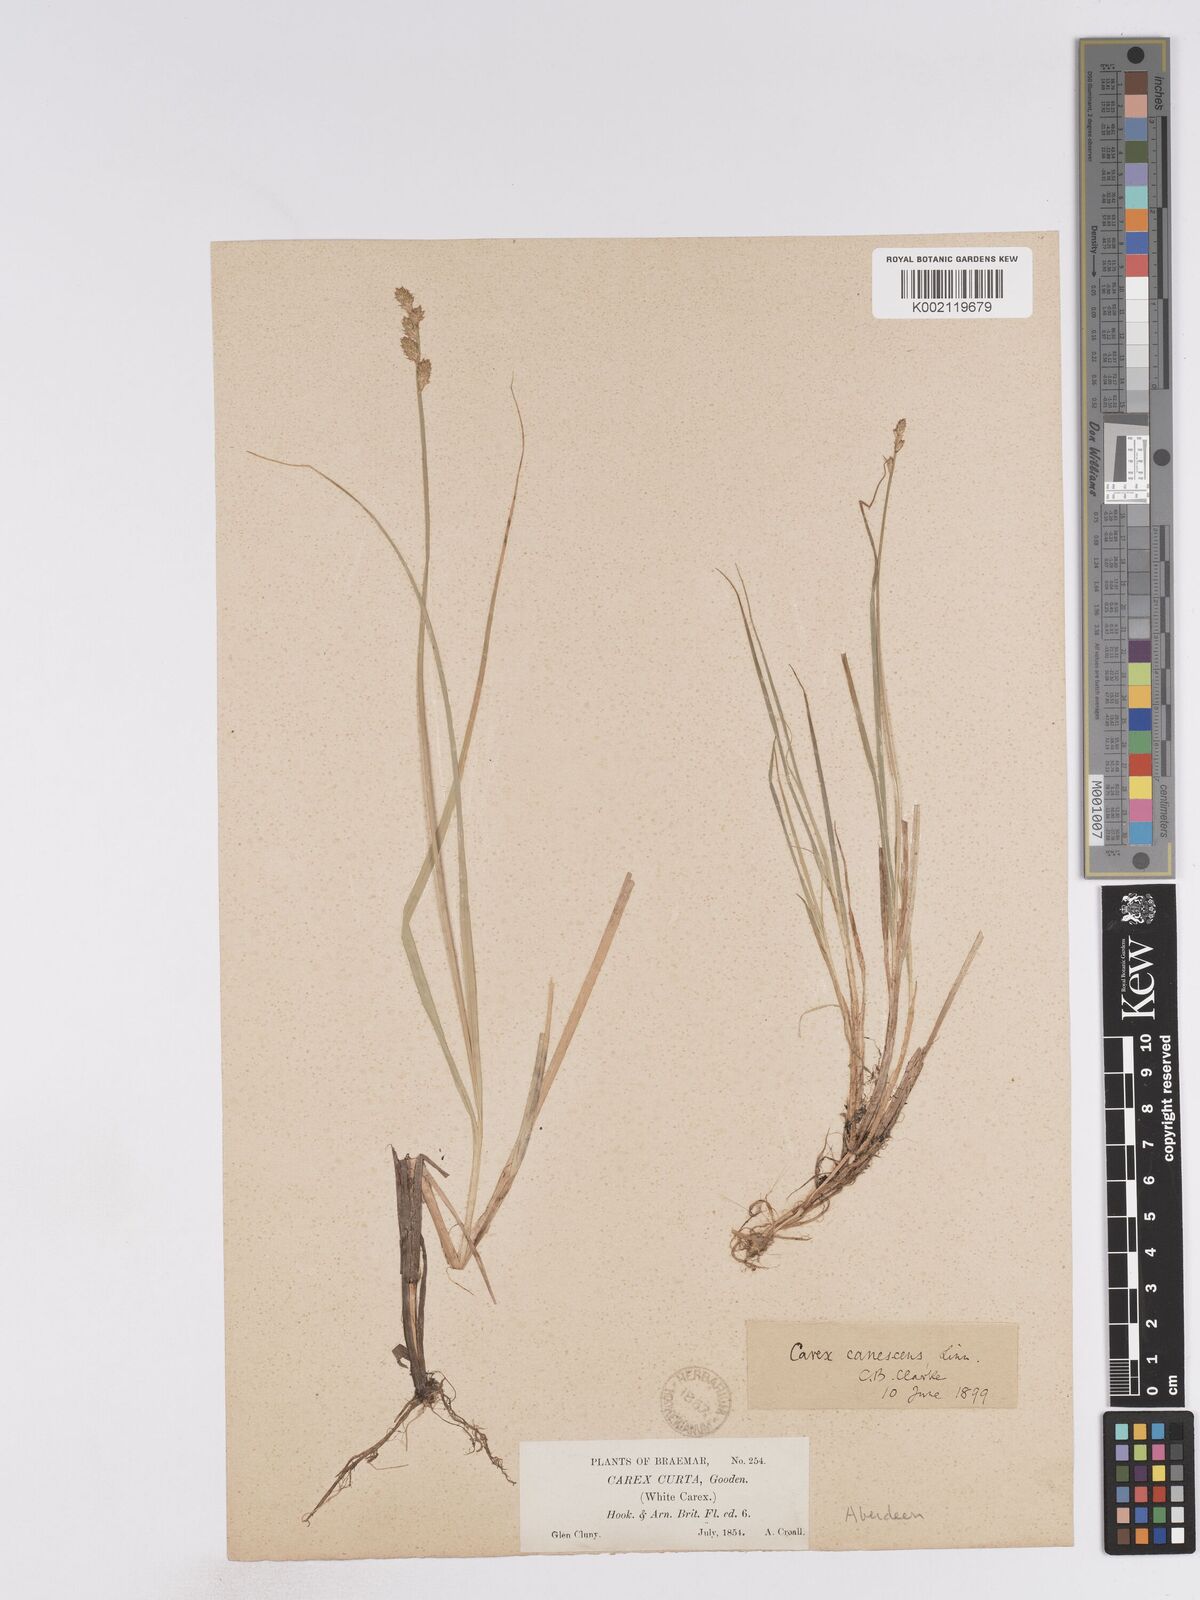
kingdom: Plantae
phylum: Tracheophyta
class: Liliopsida
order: Poales
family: Cyperaceae
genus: Carex
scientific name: Carex curta
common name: White sedge
